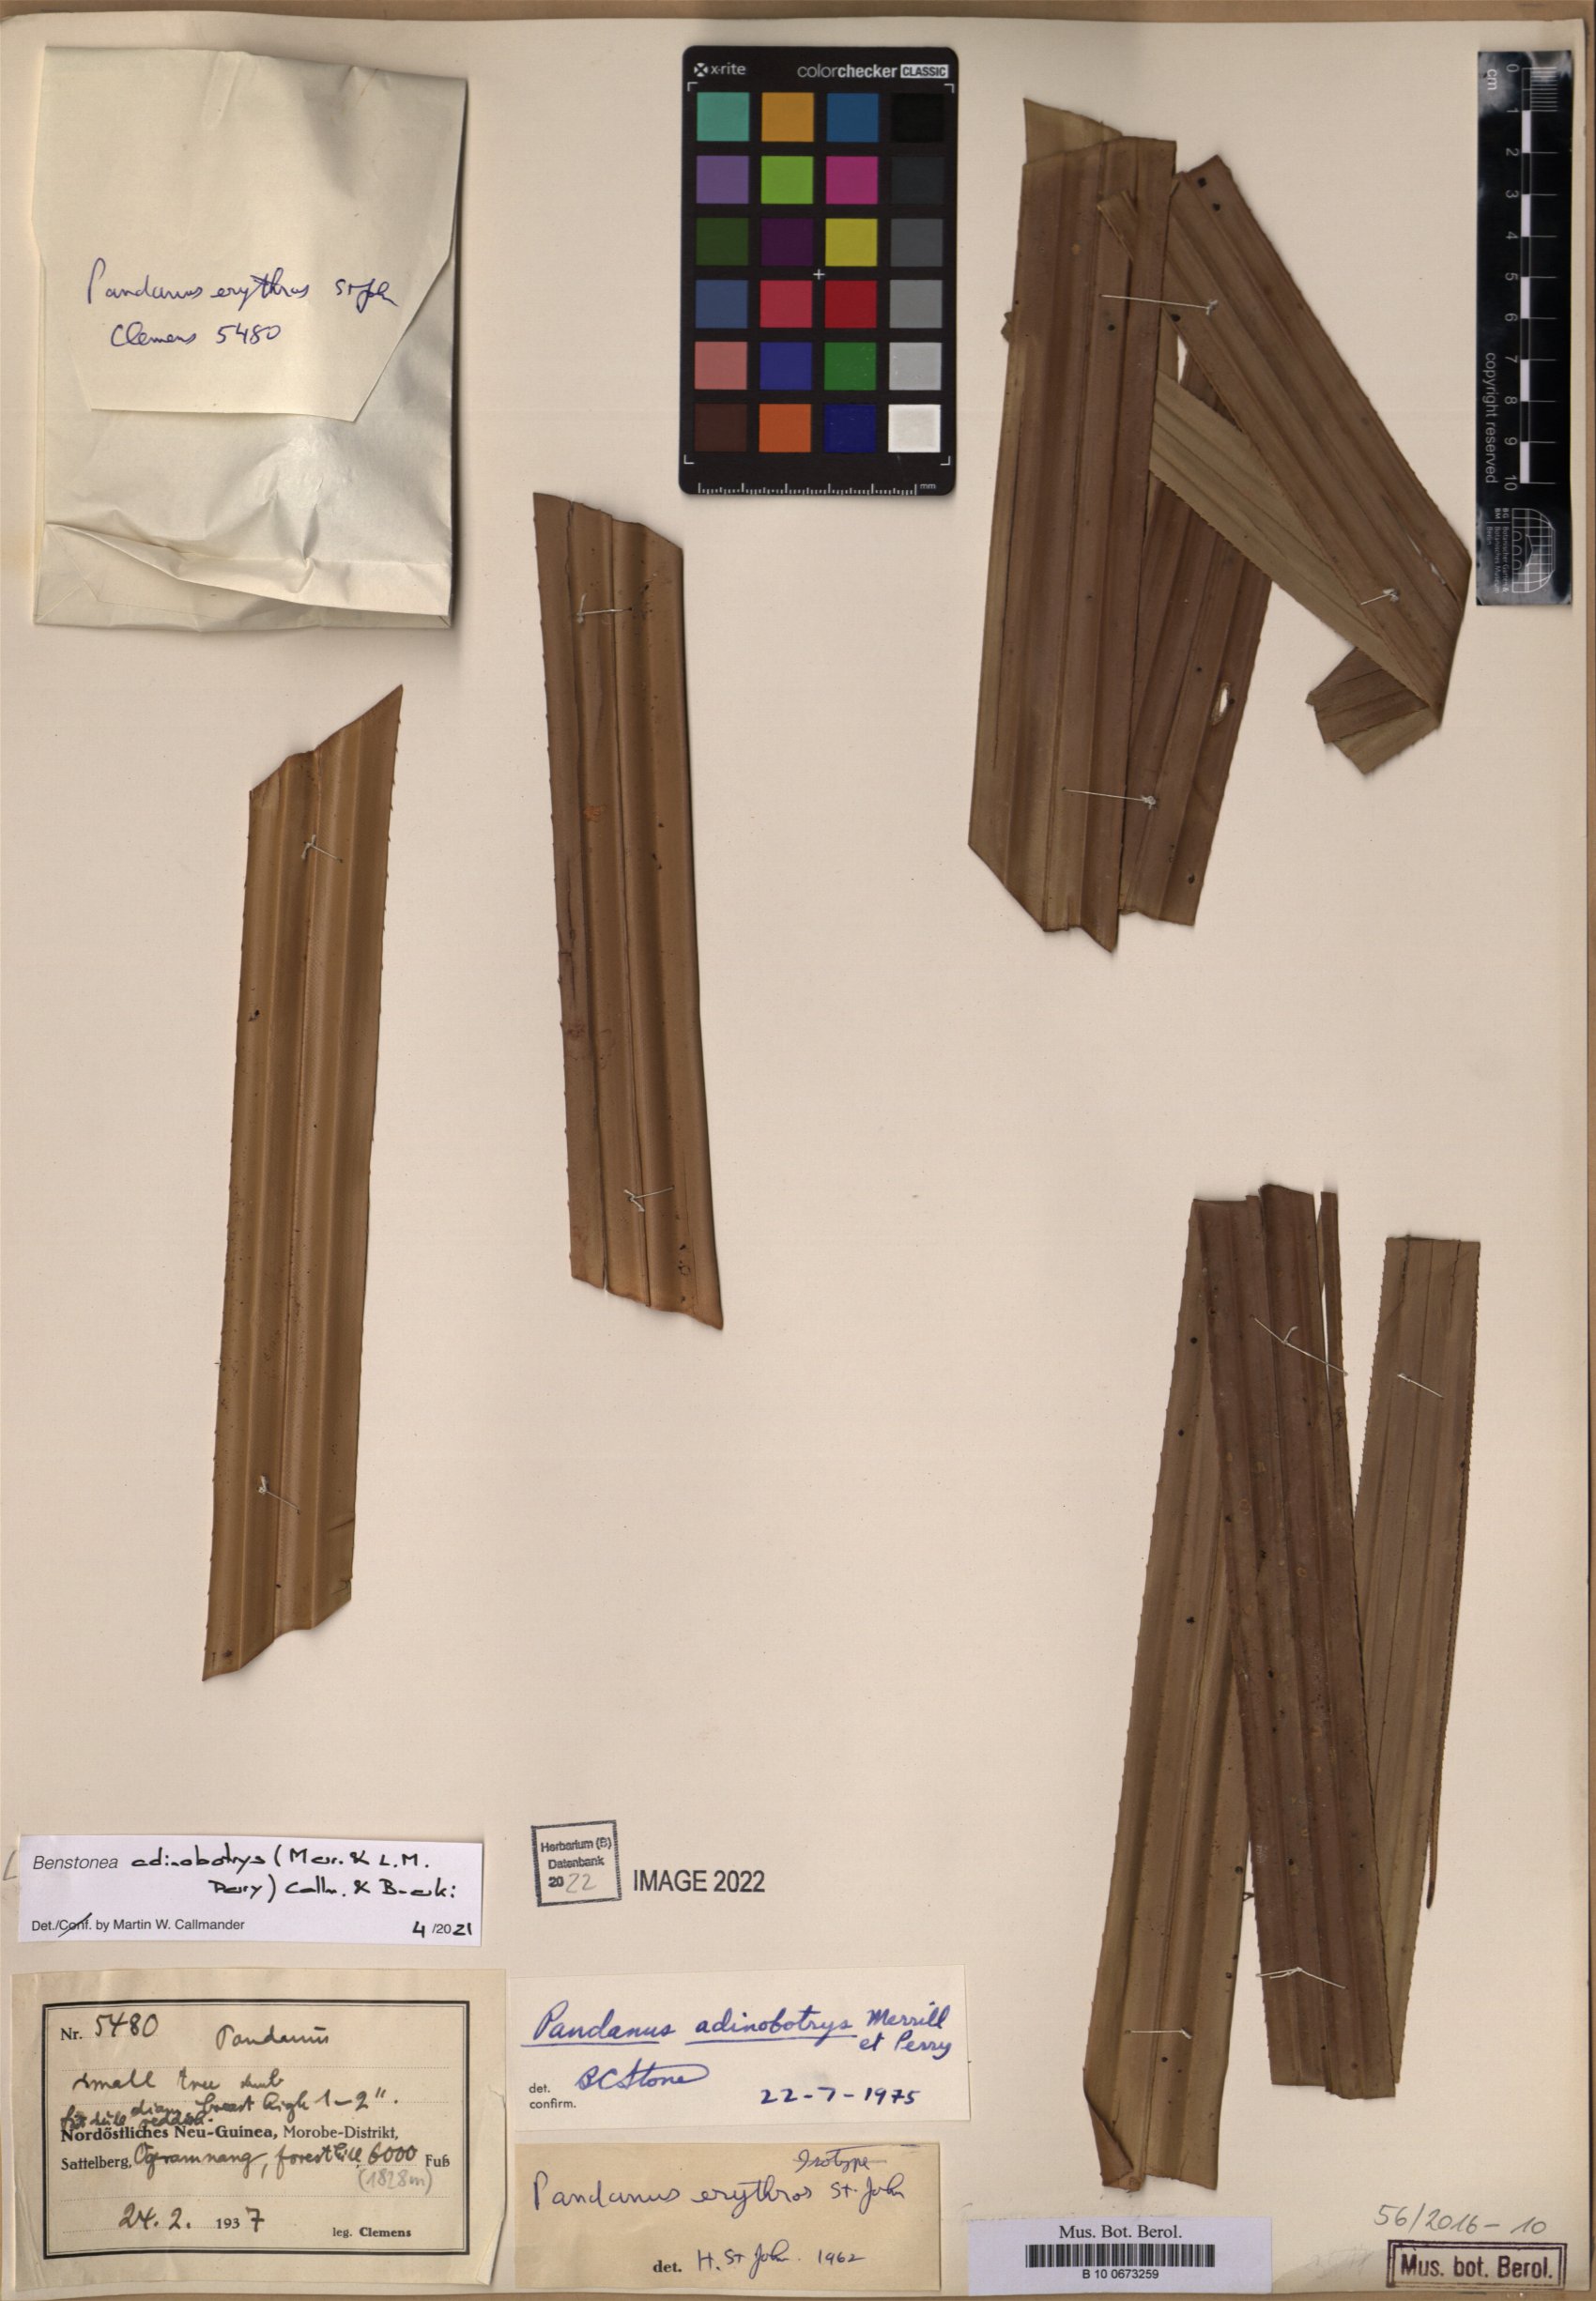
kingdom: Plantae
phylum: Tracheophyta
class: Liliopsida
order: Pandanales
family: Pandanaceae
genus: Benstonea
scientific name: Benstonea adinobotrys
